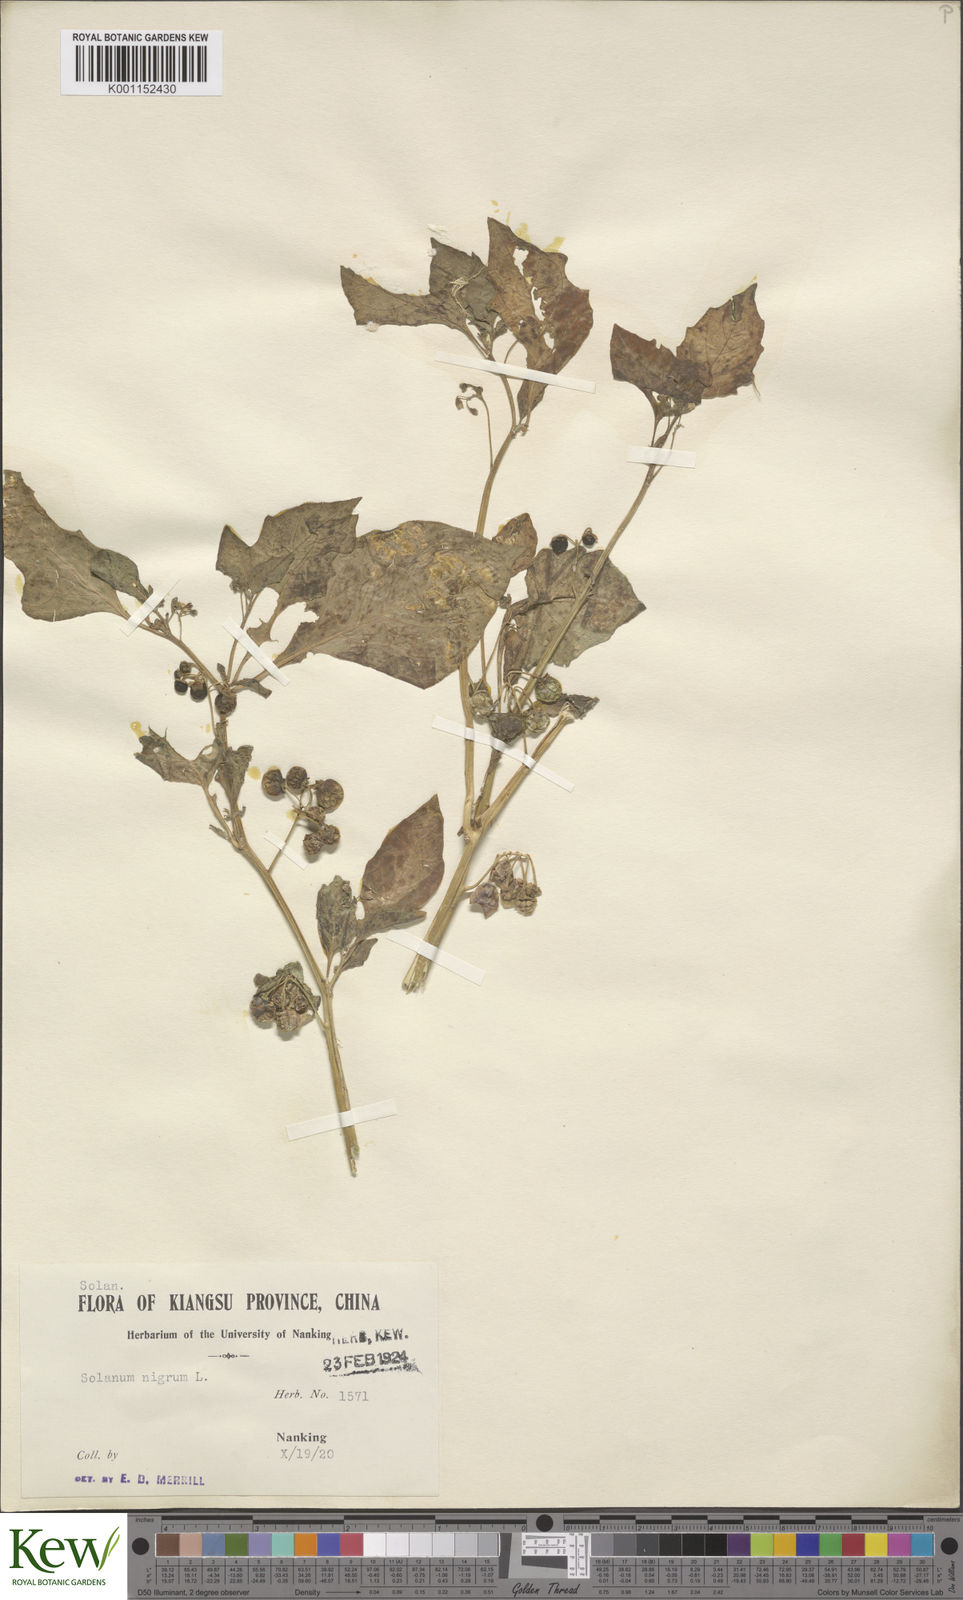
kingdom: Plantae
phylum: Tracheophyta
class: Magnoliopsida
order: Solanales
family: Solanaceae
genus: Solanum
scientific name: Solanum scabrum
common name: Garden-huckleberry
